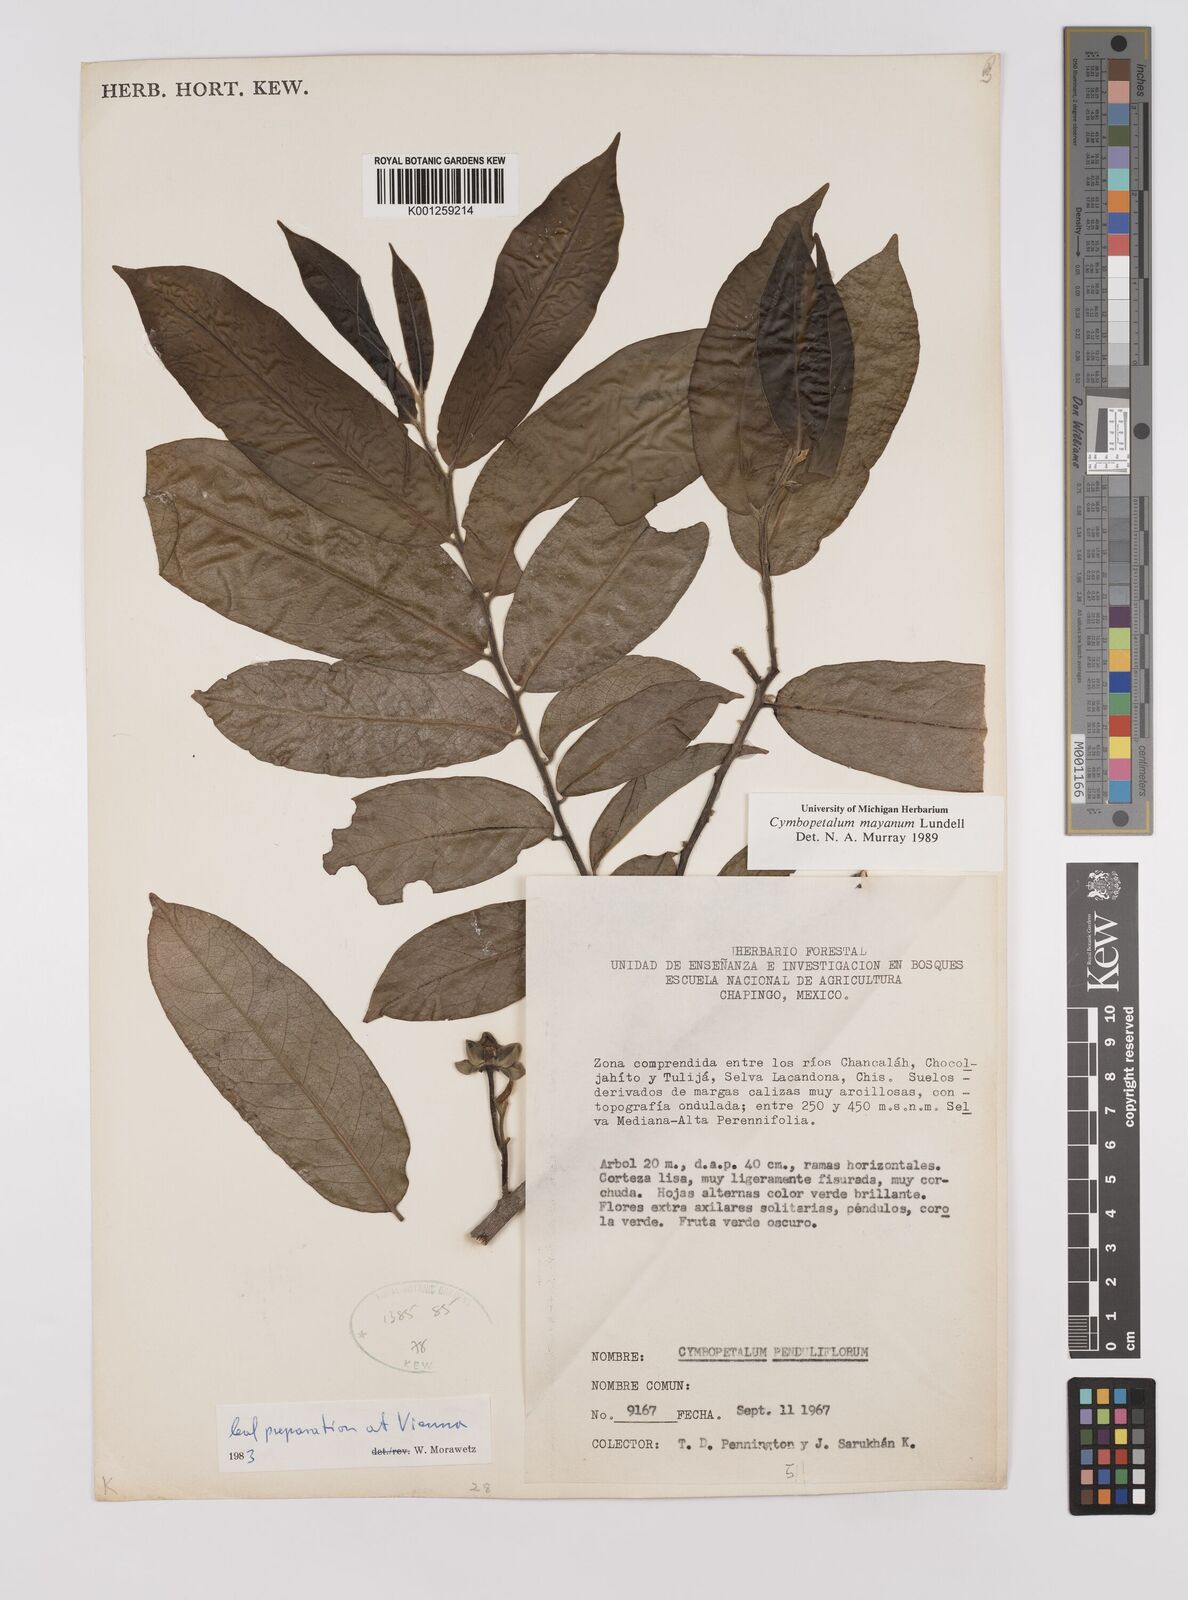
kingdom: Plantae
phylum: Tracheophyta
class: Magnoliopsida
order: Magnoliales
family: Annonaceae
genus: Cymbopetalum
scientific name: Cymbopetalum mayanum
